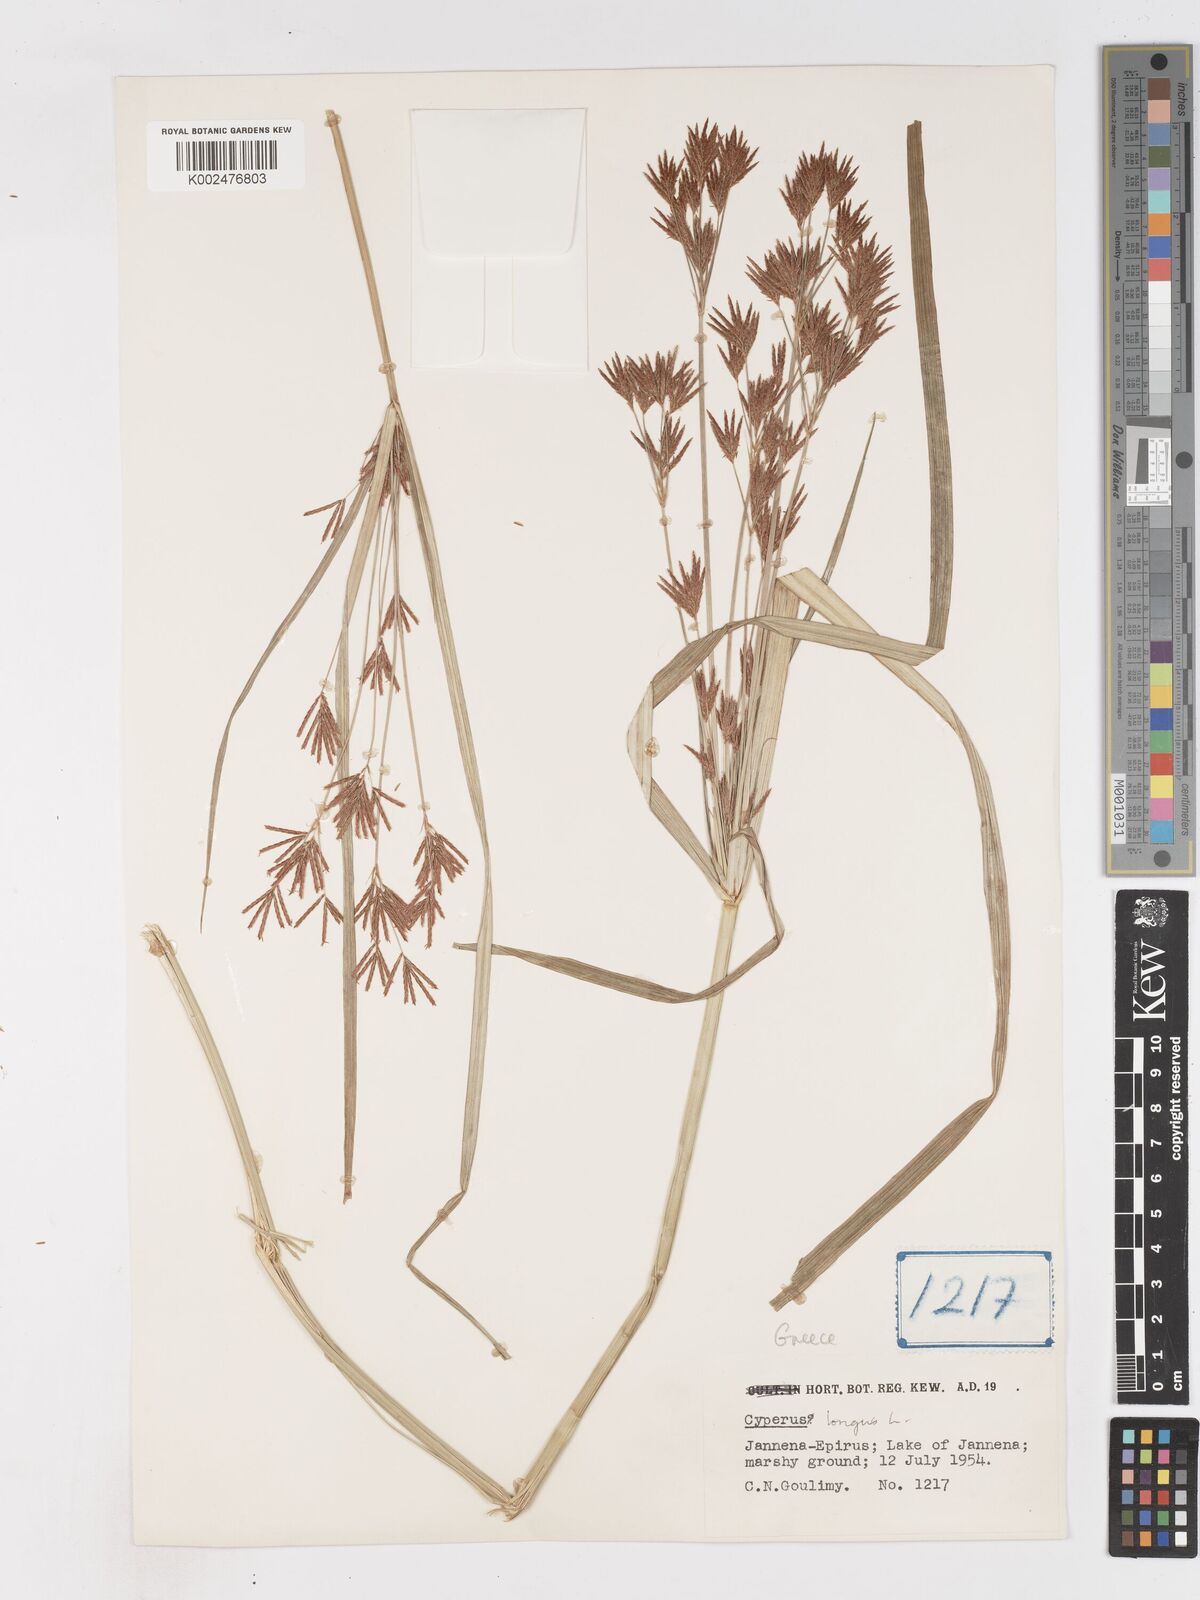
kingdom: Plantae
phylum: Tracheophyta
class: Liliopsida
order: Poales
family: Cyperaceae
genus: Cyperus
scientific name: Cyperus longus
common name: Galingale
